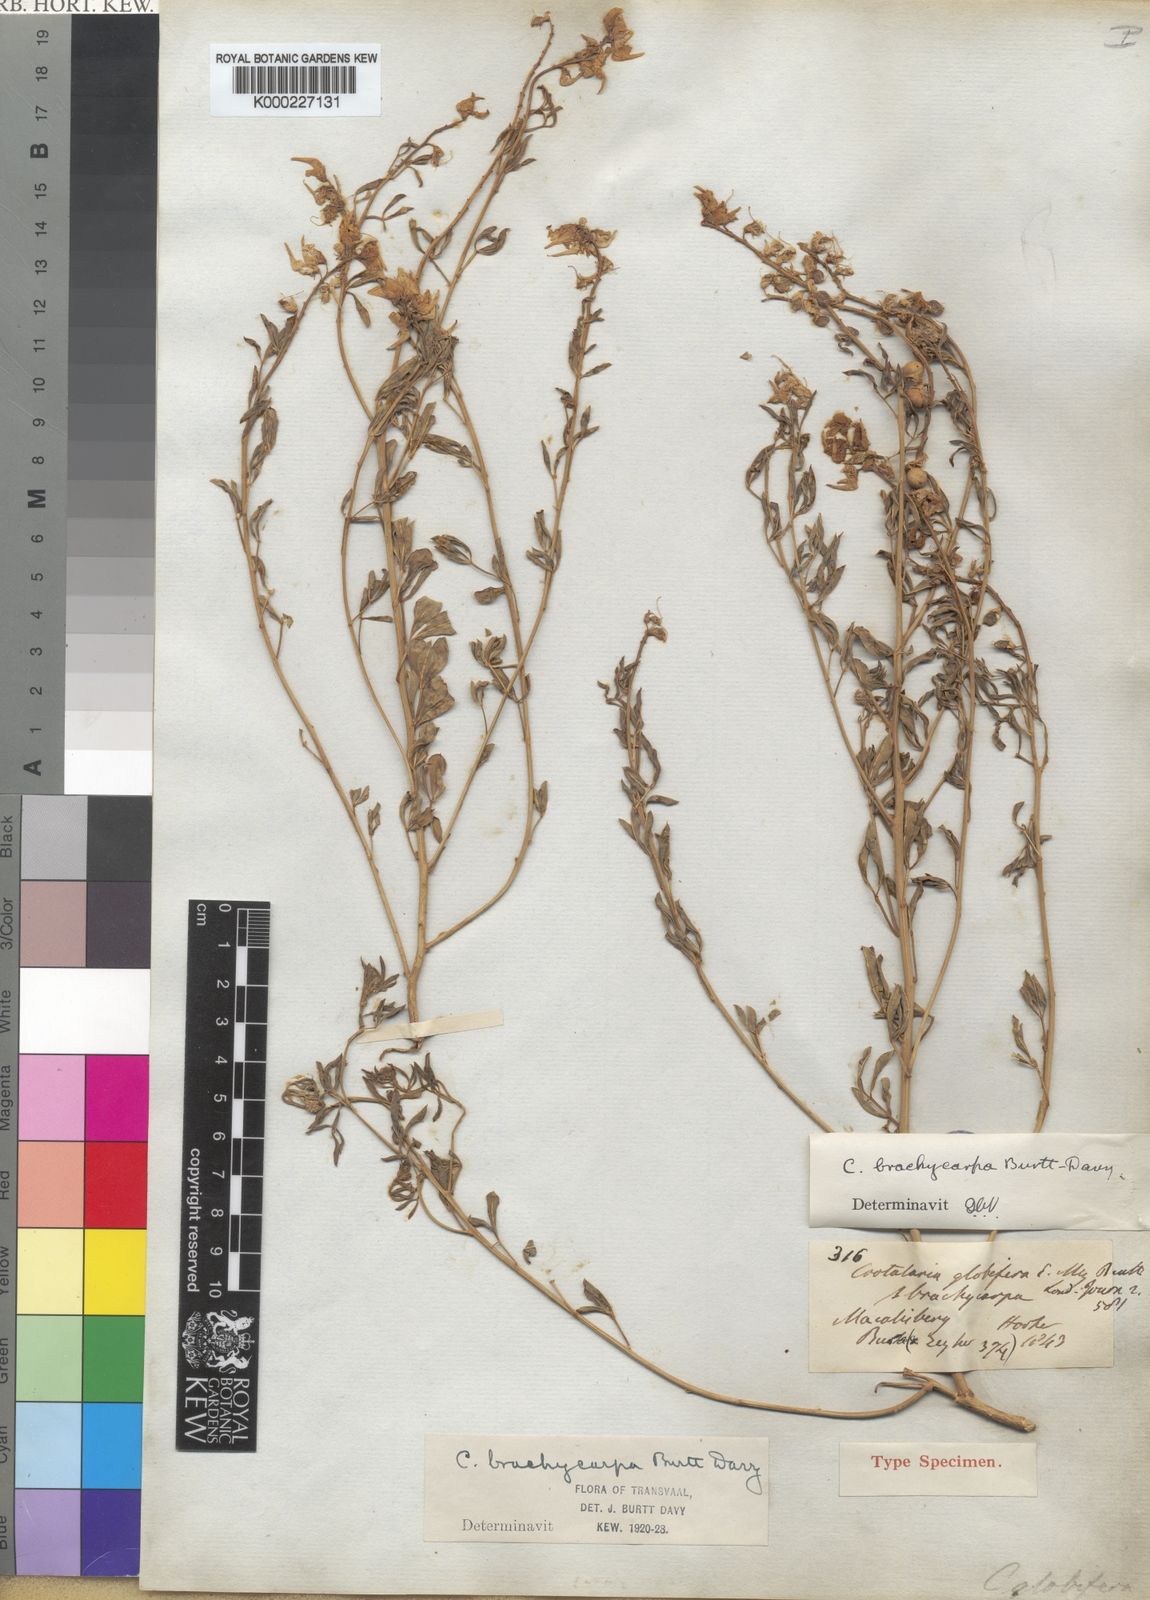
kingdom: Plantae
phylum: Tracheophyta
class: Magnoliopsida
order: Fabales
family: Fabaceae
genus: Crotalaria
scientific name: Crotalaria magaliesbergensis
